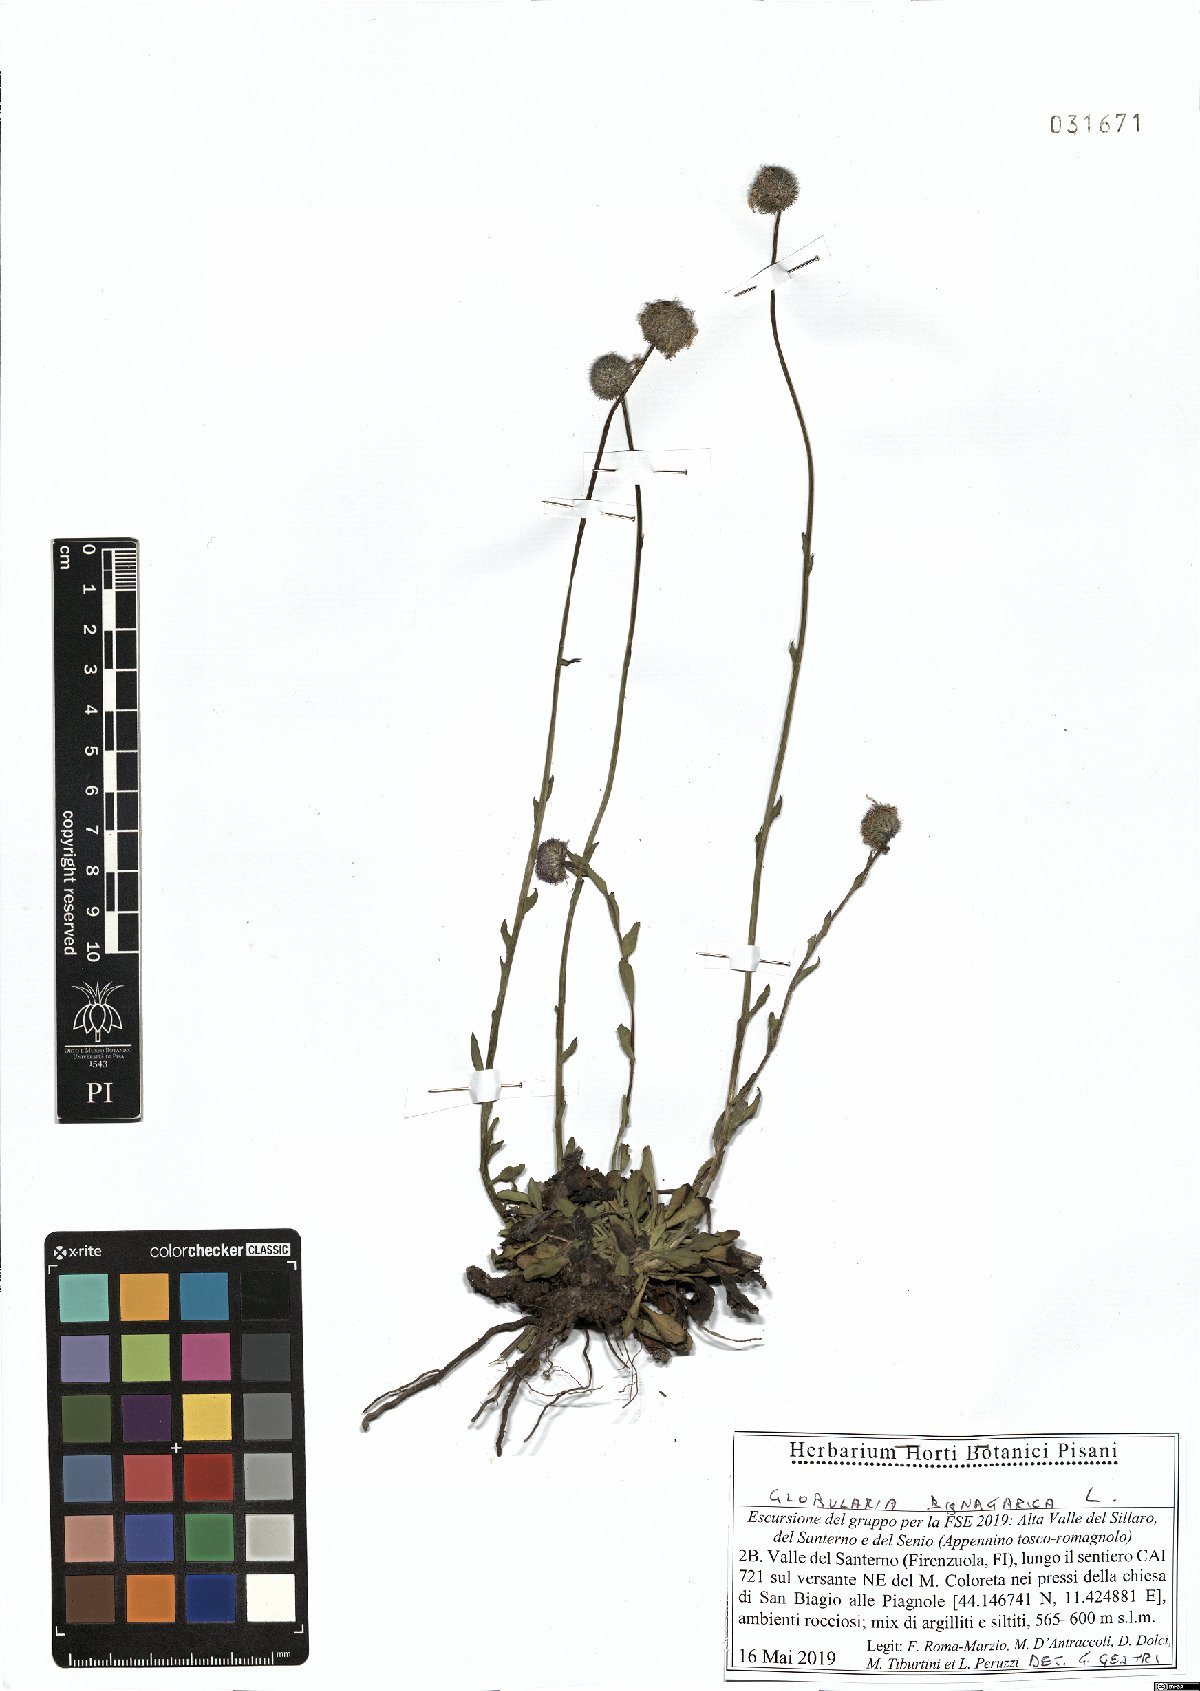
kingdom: Plantae
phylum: Tracheophyta
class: Magnoliopsida
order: Lamiales
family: Plantaginaceae
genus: Globularia
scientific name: Globularia bisnagarica
